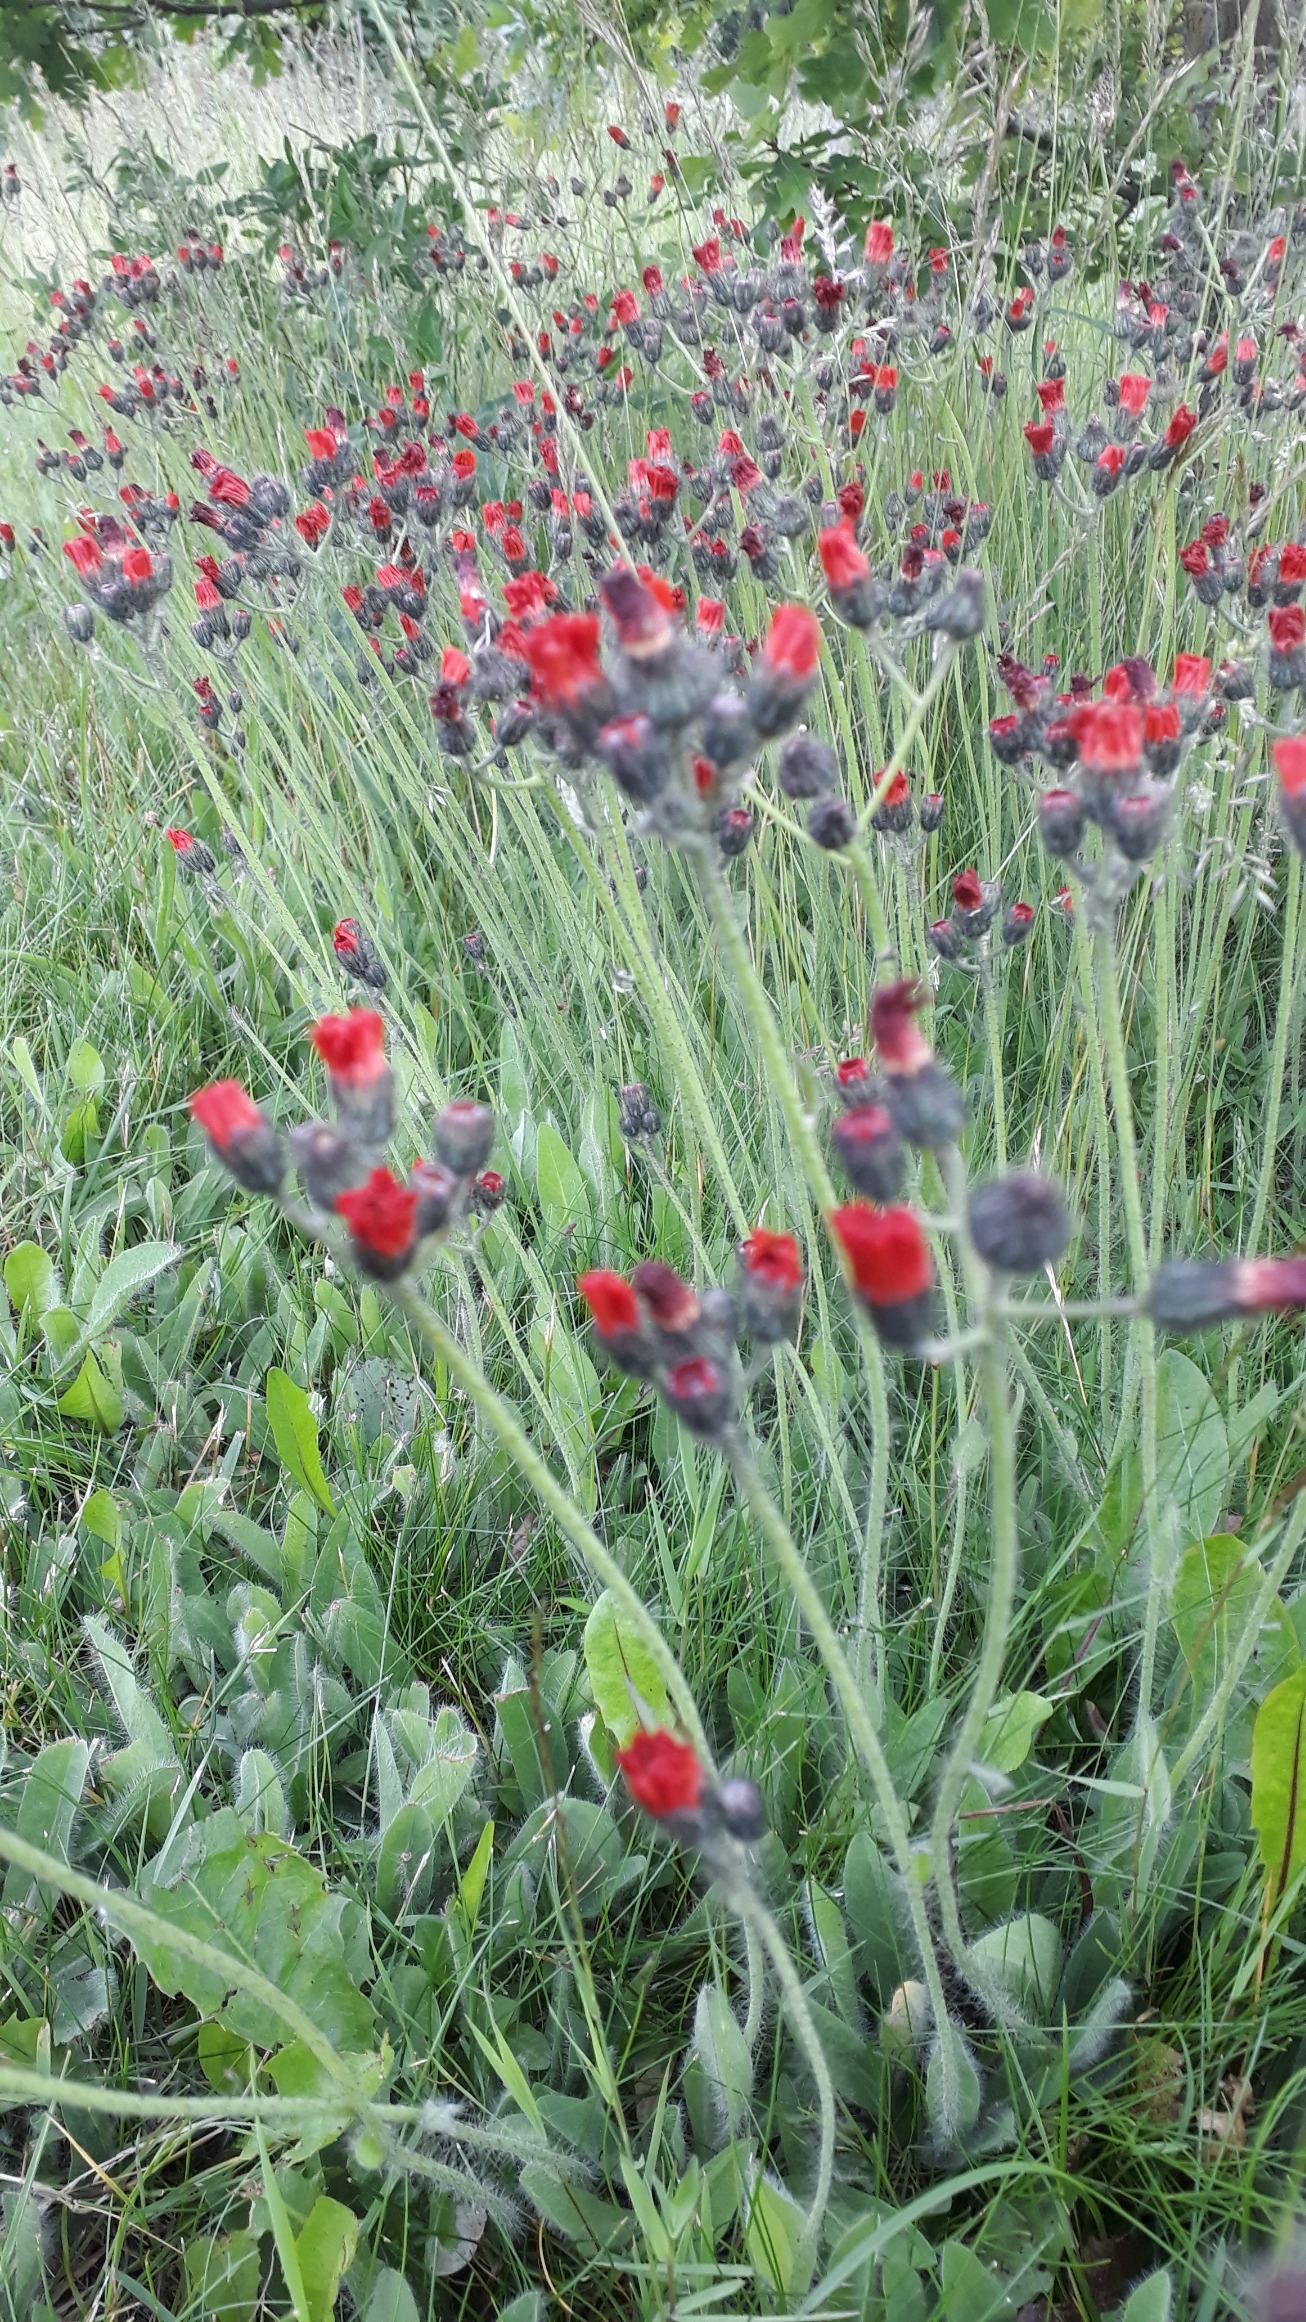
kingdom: Plantae
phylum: Tracheophyta
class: Magnoliopsida
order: Asterales
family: Asteraceae
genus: Pilosella
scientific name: Pilosella aurantiaca
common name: Pomerans-høgeurt
